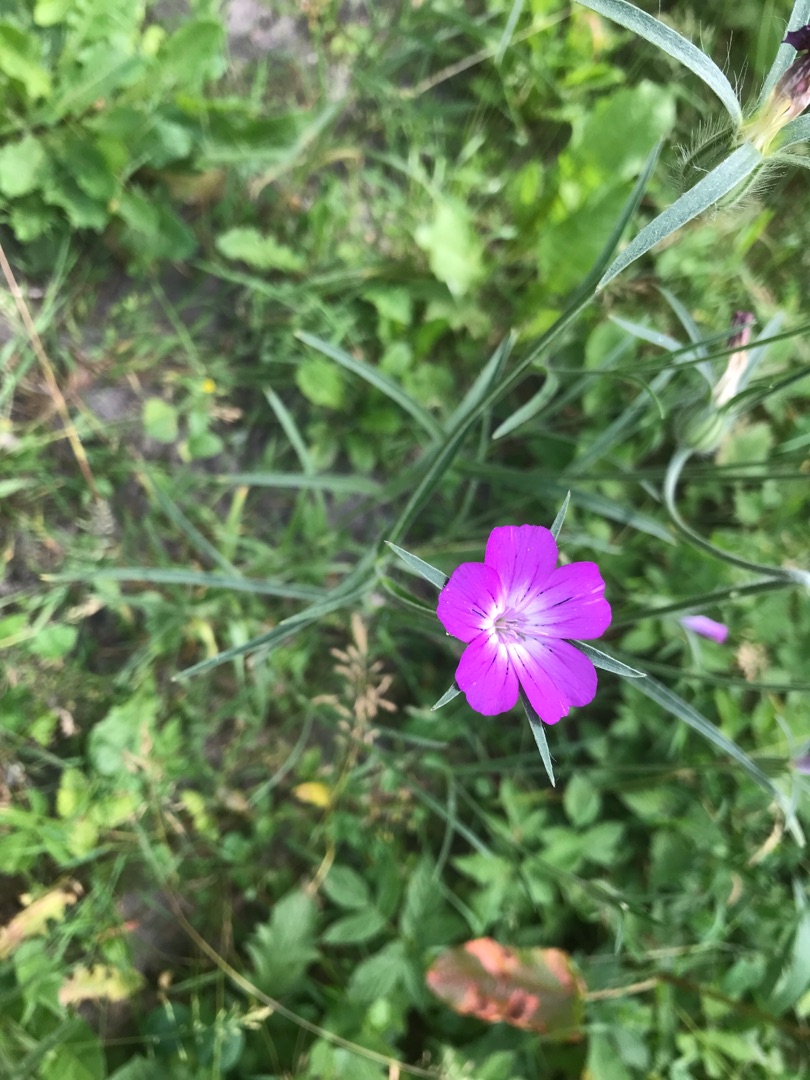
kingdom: Plantae
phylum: Tracheophyta
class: Magnoliopsida
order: Caryophyllales
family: Caryophyllaceae
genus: Agrostemma
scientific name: Agrostemma githago
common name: Klinte
